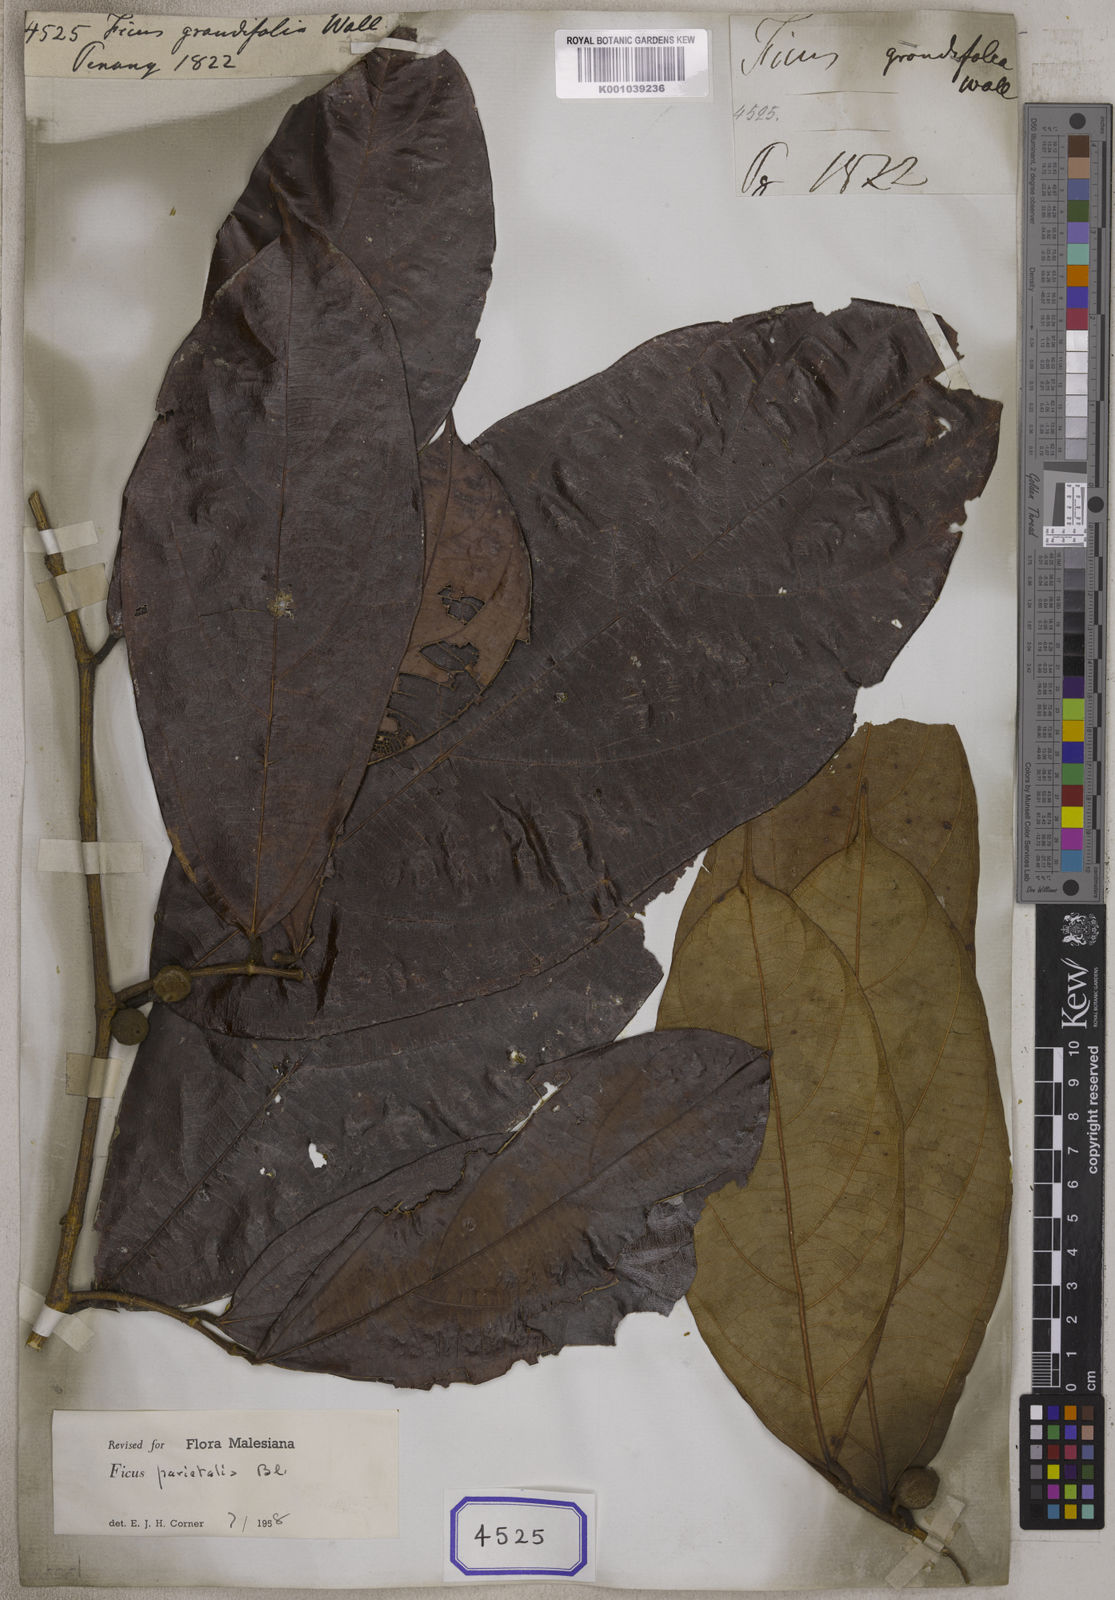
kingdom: Plantae
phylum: Tracheophyta
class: Magnoliopsida
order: Rosales
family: Moraceae
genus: Ficus
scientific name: Ficus
